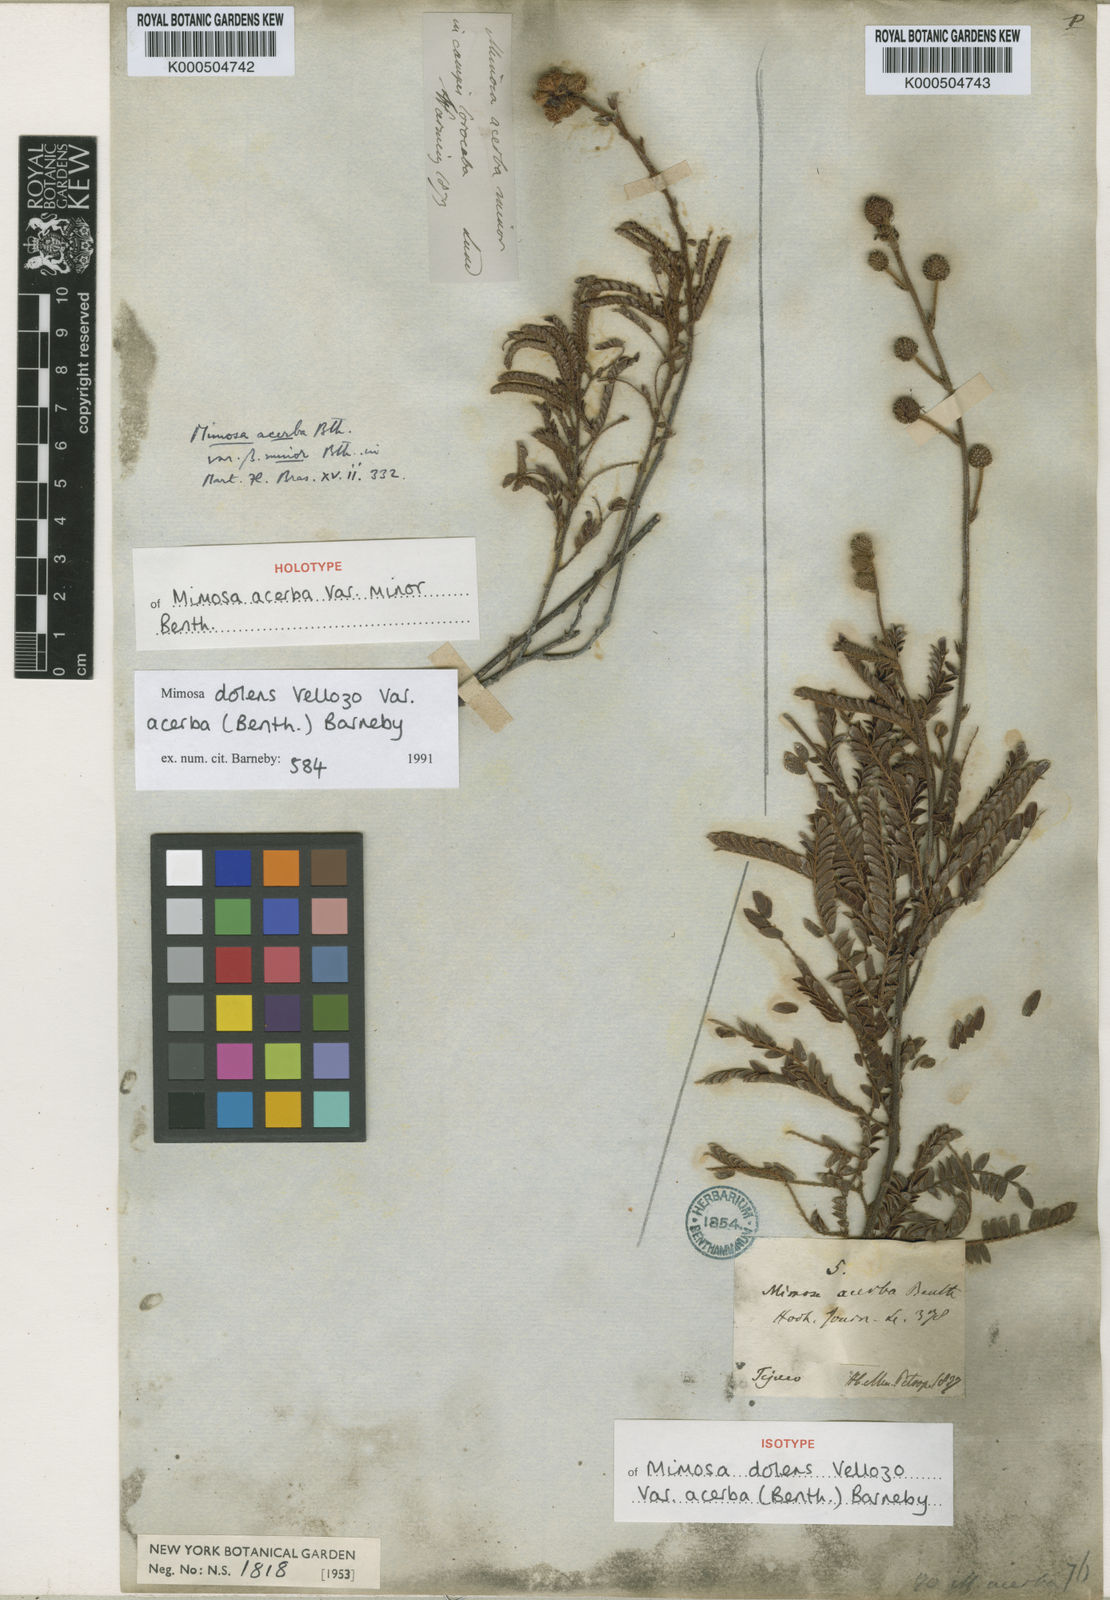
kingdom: Plantae
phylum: Tracheophyta
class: Magnoliopsida
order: Fabales
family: Fabaceae
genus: Mimosa
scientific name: Mimosa dolens
